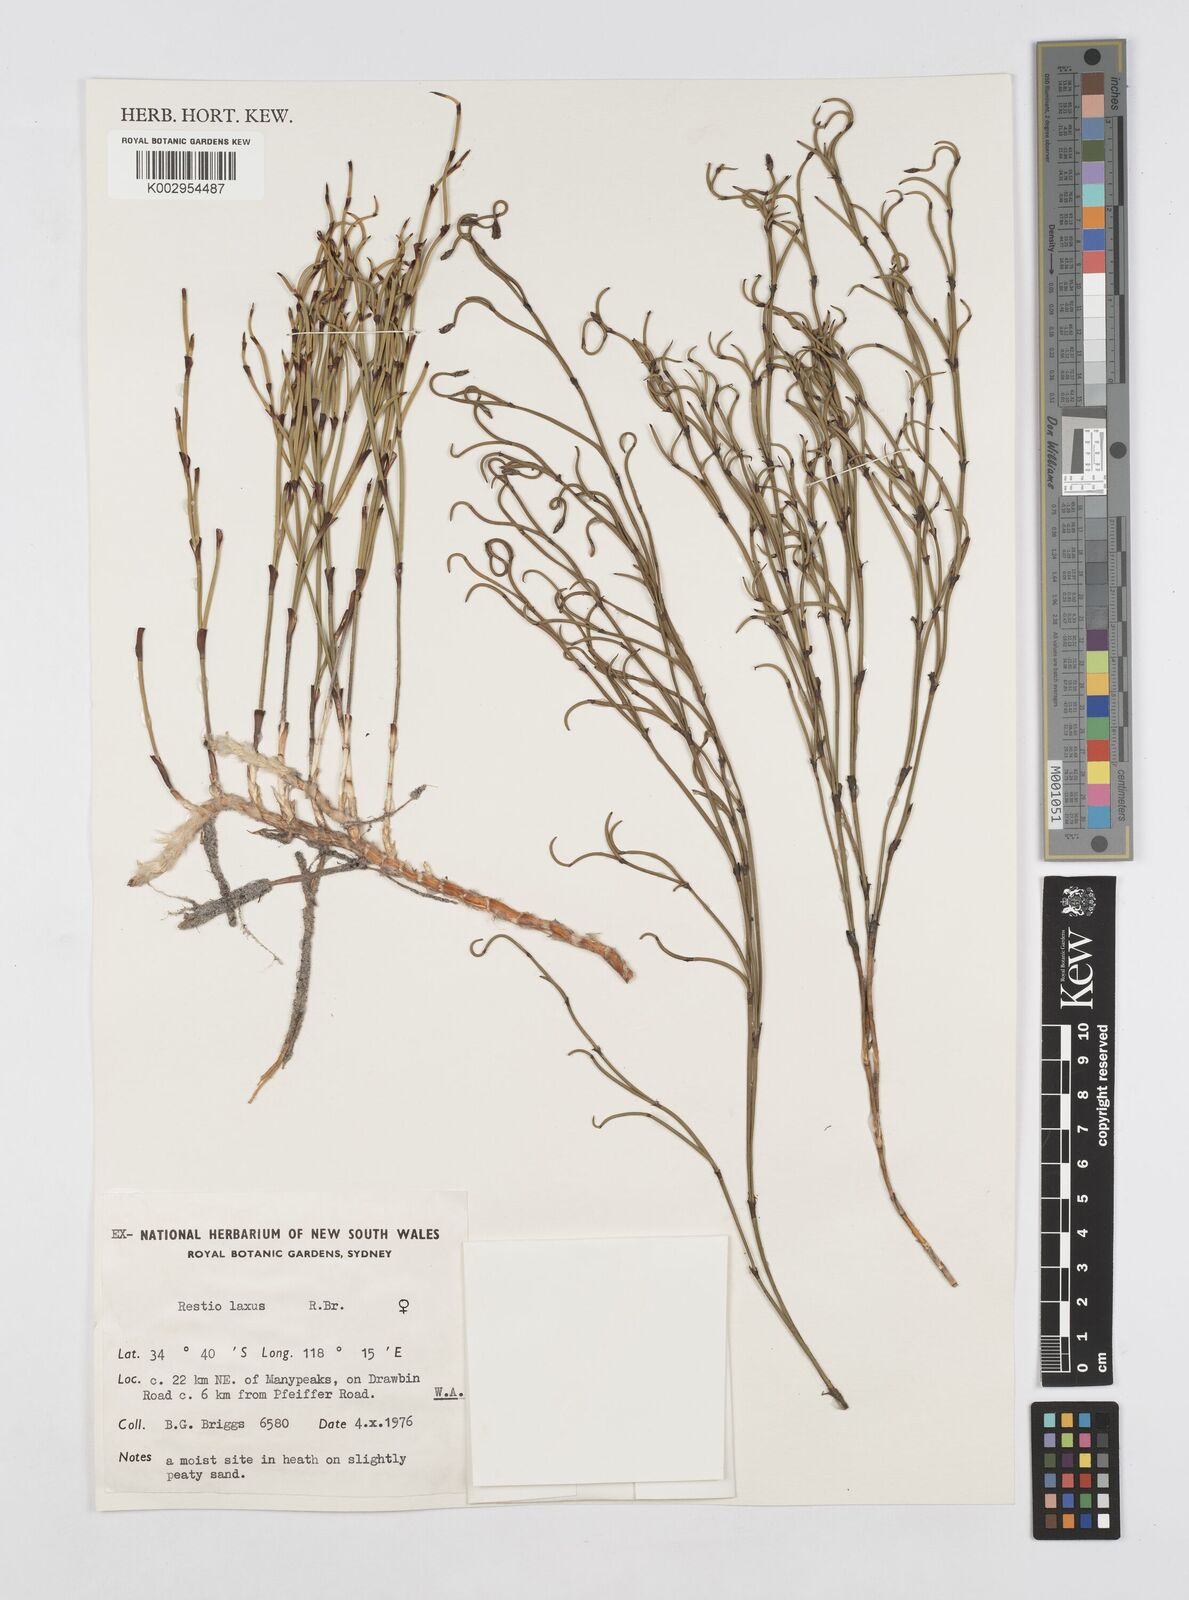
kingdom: Plantae
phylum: Tracheophyta
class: Liliopsida
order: Poales
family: Restionaceae
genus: Chordifex
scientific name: Chordifex laxus
